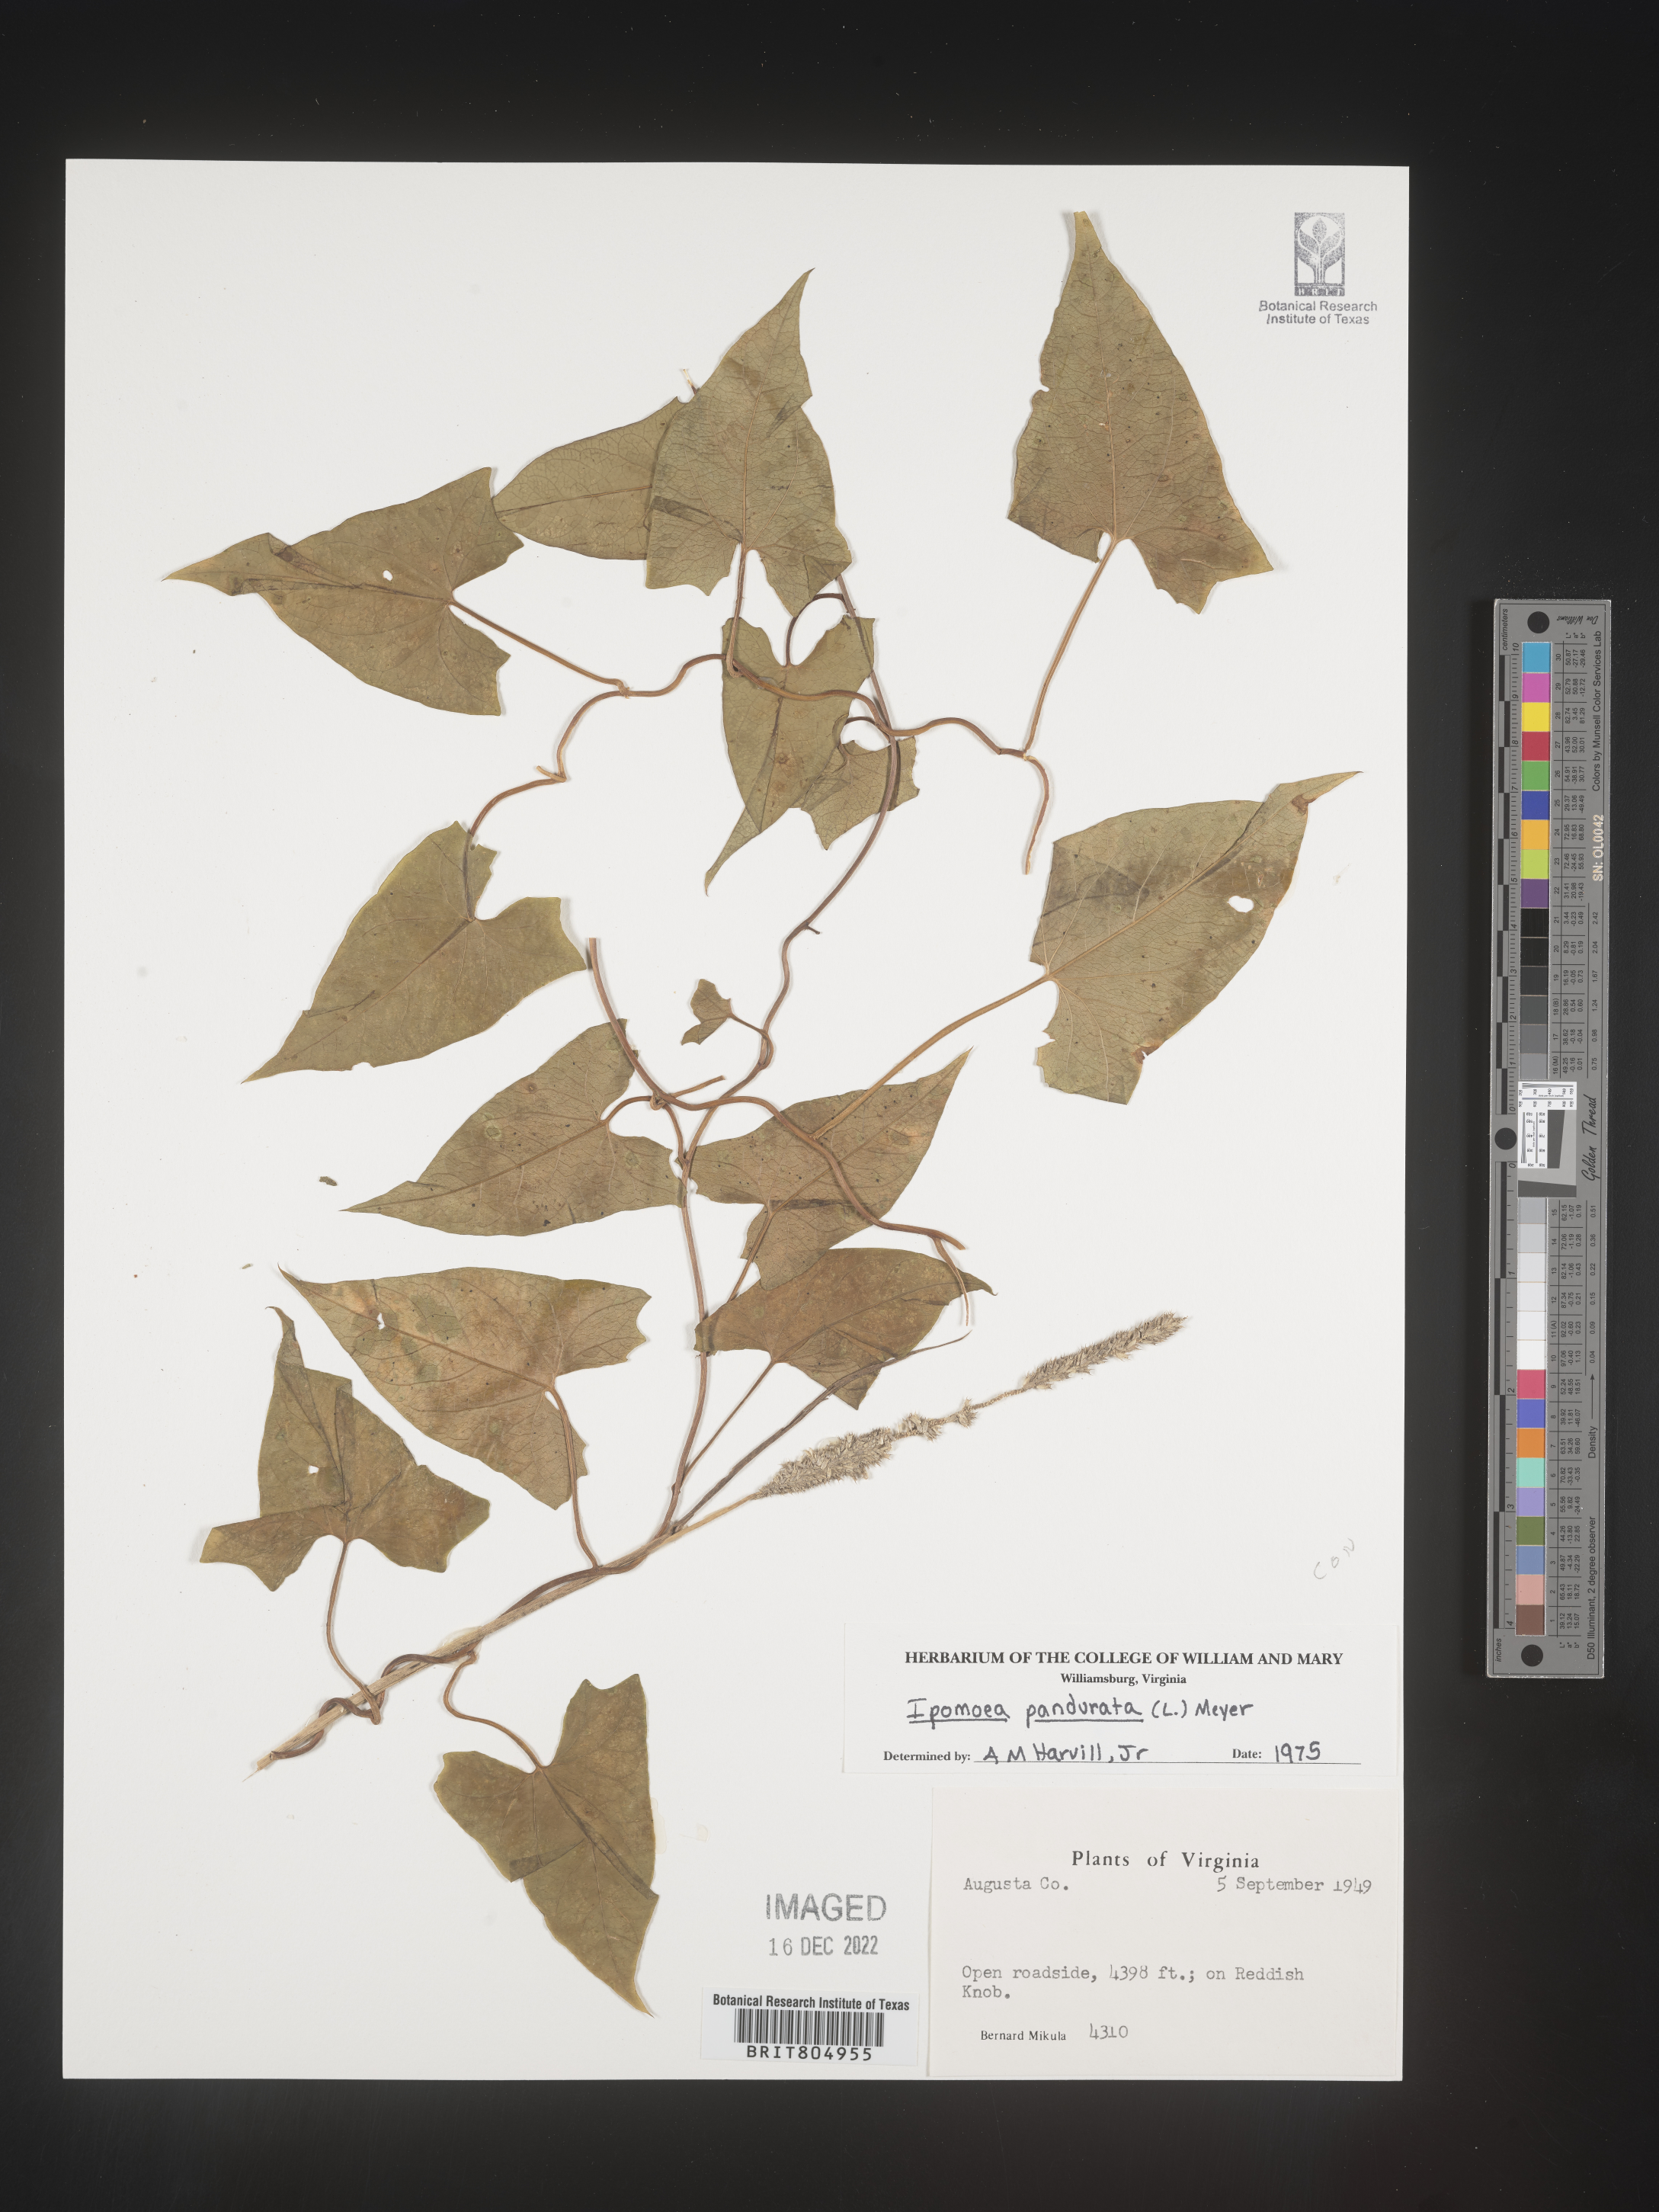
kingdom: Plantae
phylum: Tracheophyta
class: Magnoliopsida
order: Solanales
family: Convolvulaceae
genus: Ipomoea
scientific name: Ipomoea pandurata
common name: Man-of-the-earth
